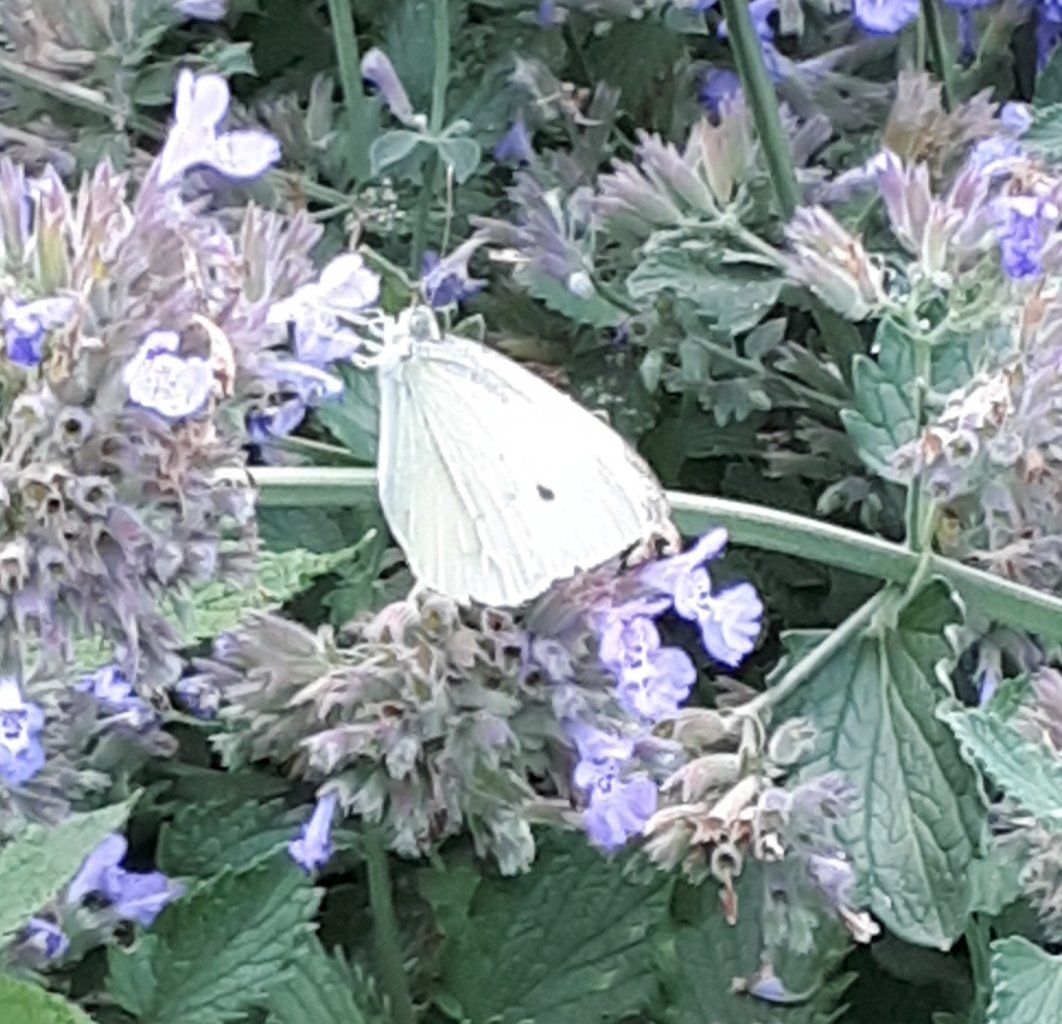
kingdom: Animalia
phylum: Arthropoda
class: Insecta
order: Lepidoptera
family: Pieridae
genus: Pieris
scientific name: Pieris rapae
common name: Cabbage White
